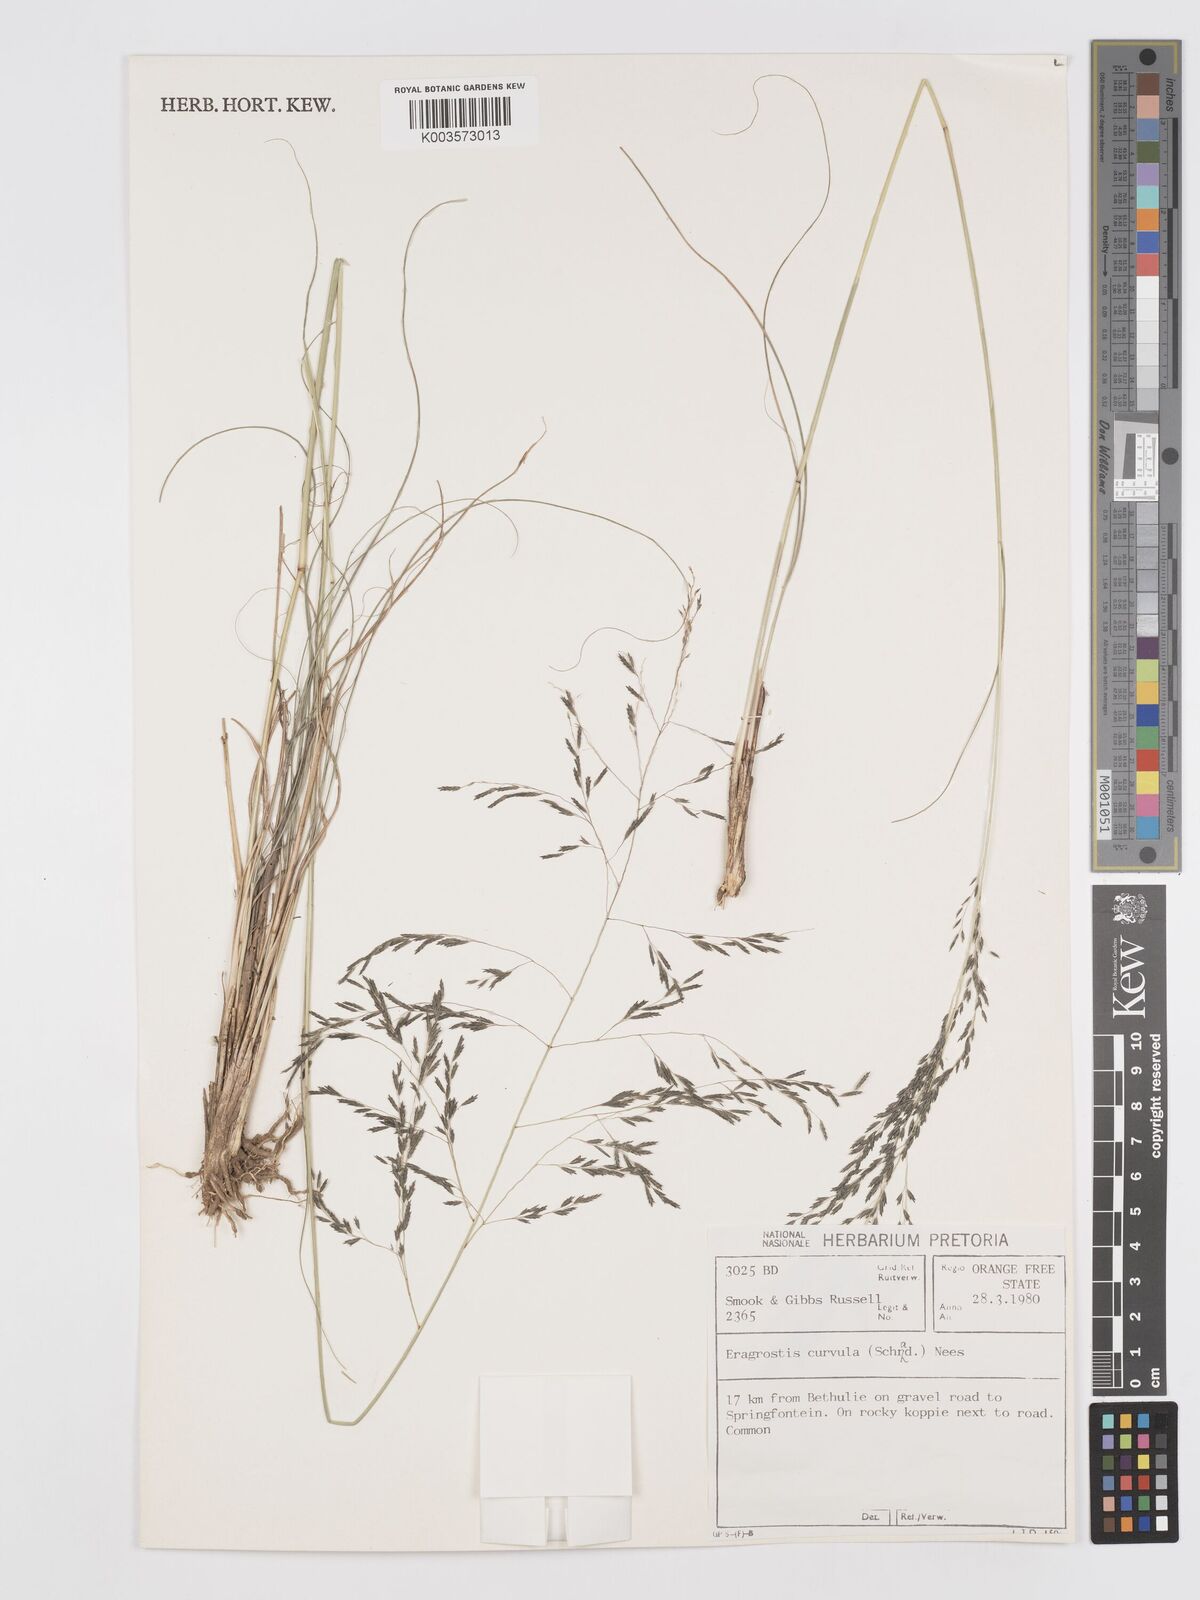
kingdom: Plantae
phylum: Tracheophyta
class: Liliopsida
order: Poales
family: Poaceae
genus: Eragrostis
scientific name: Eragrostis curvula
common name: African love-grass
